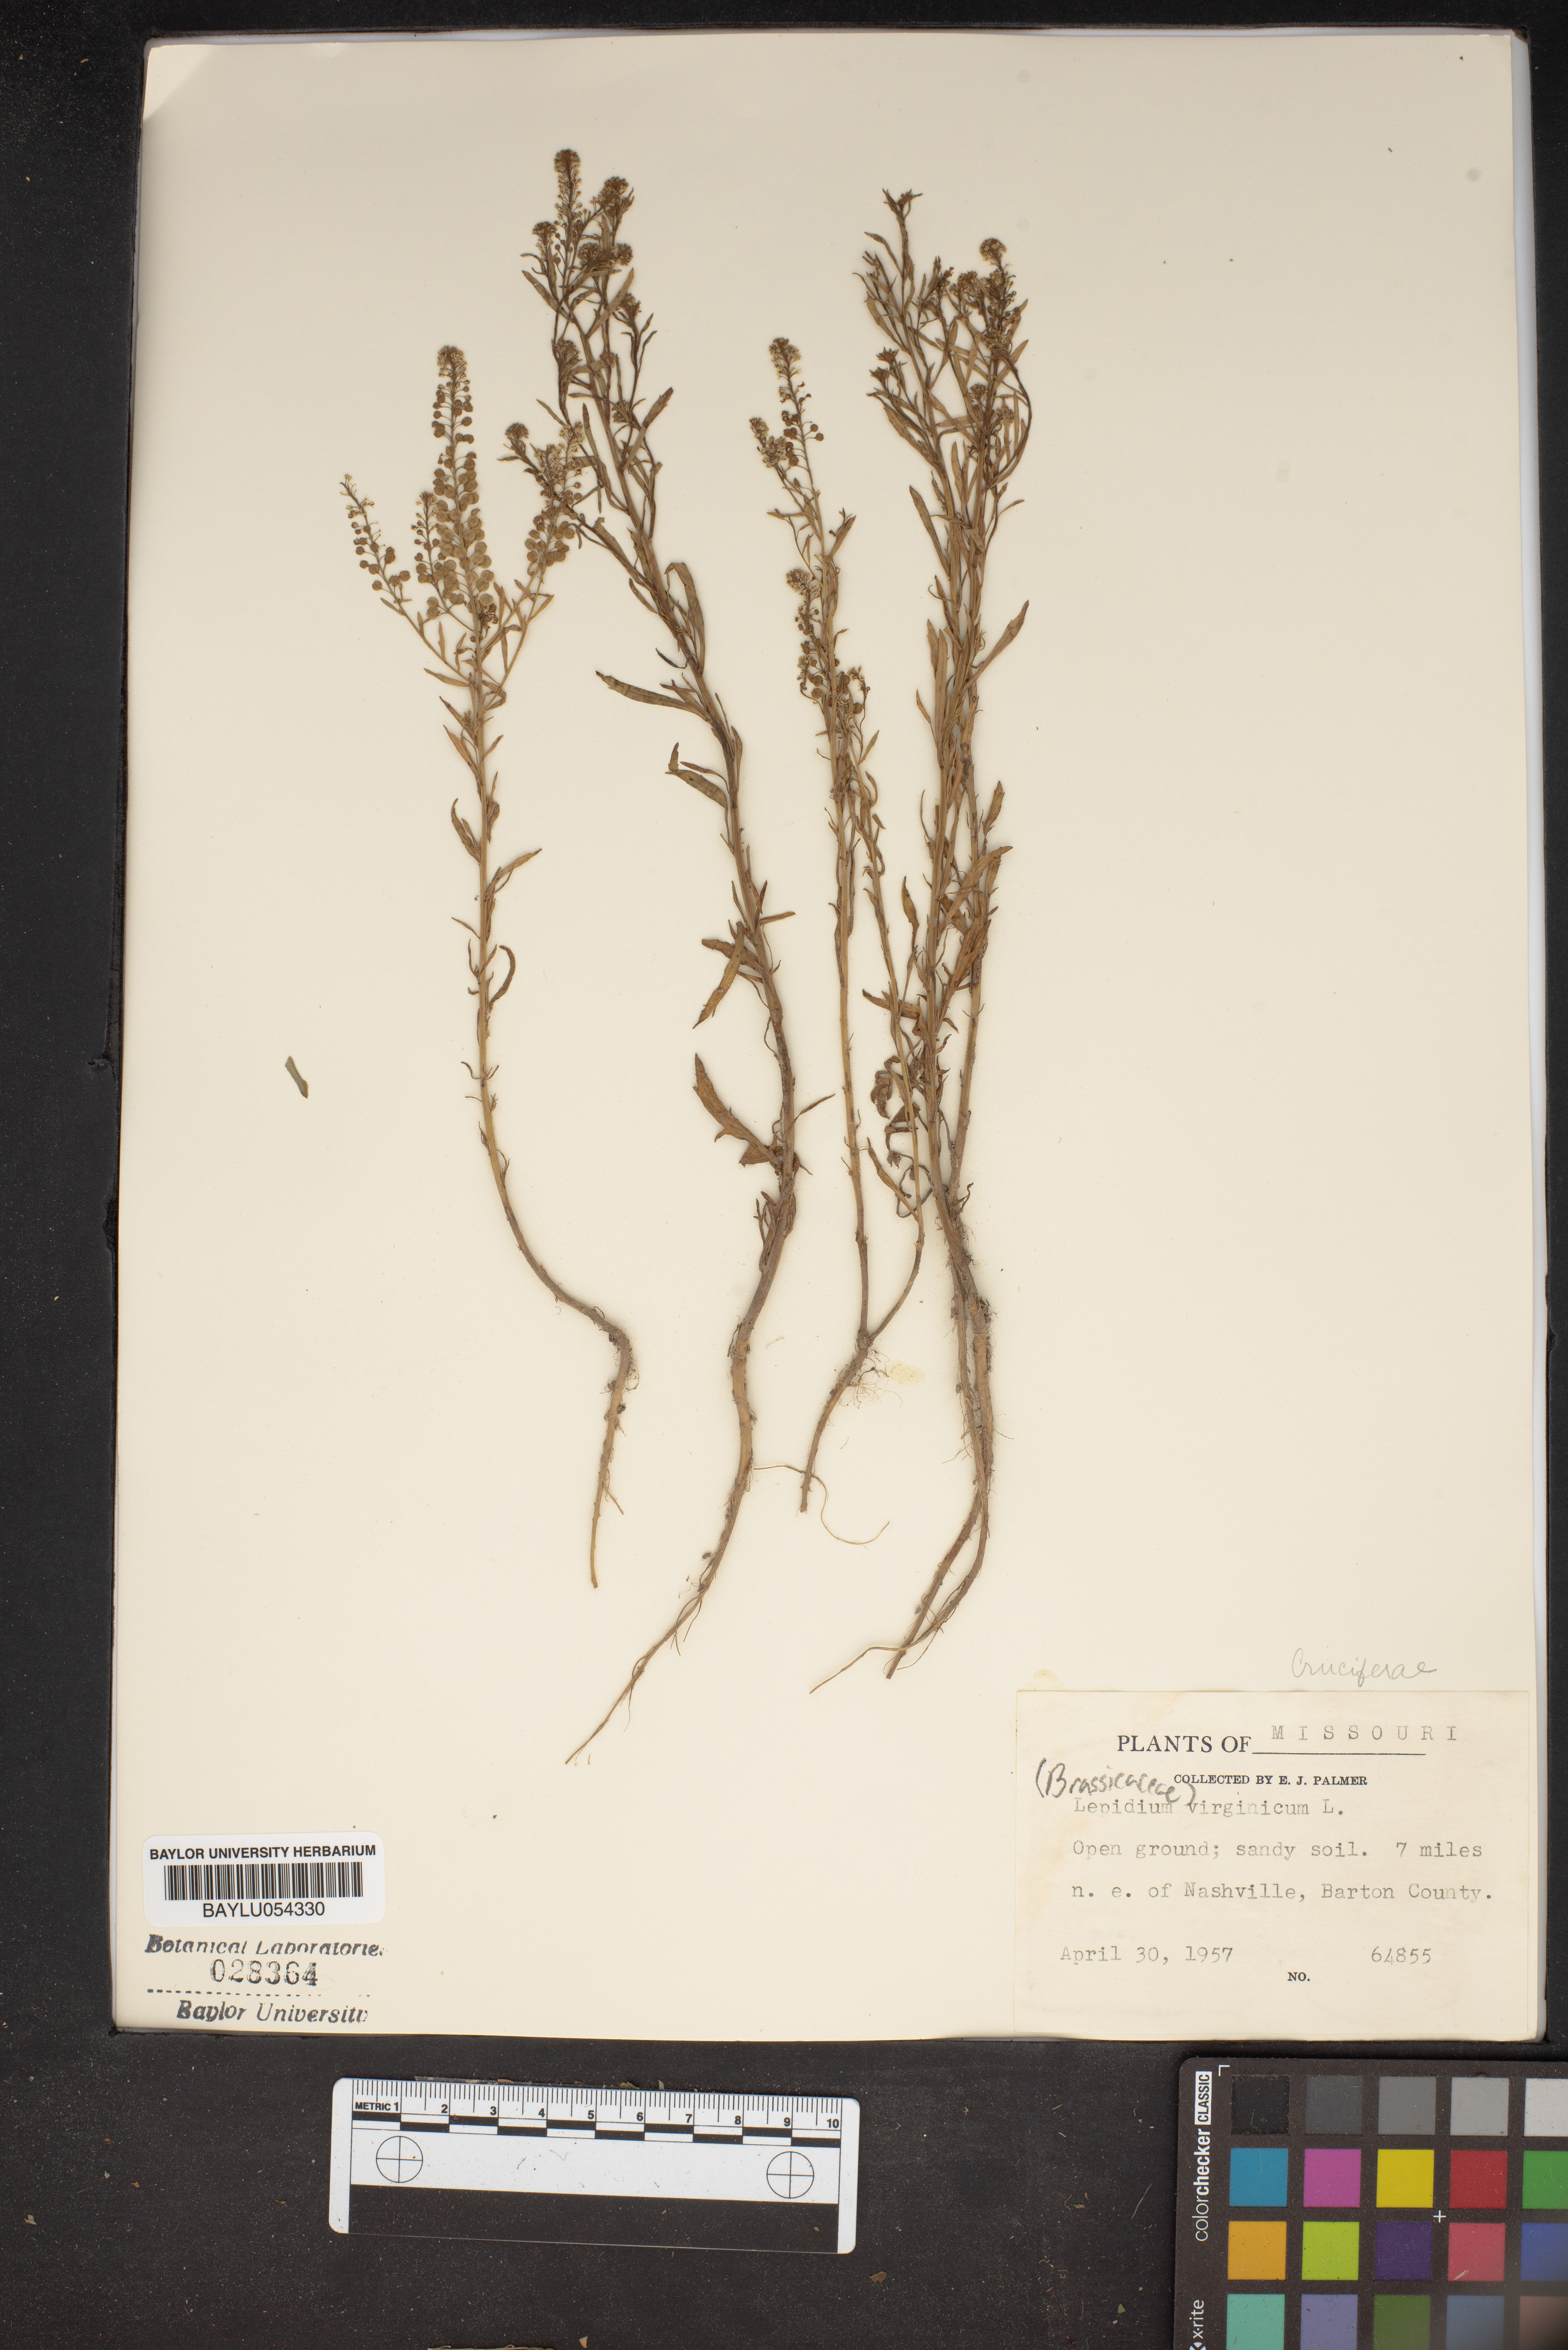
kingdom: Plantae
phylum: Tracheophyta
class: Magnoliopsida
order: Brassicales
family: Brassicaceae
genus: Lepidium
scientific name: Lepidium virginicum
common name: Least pepperwort
